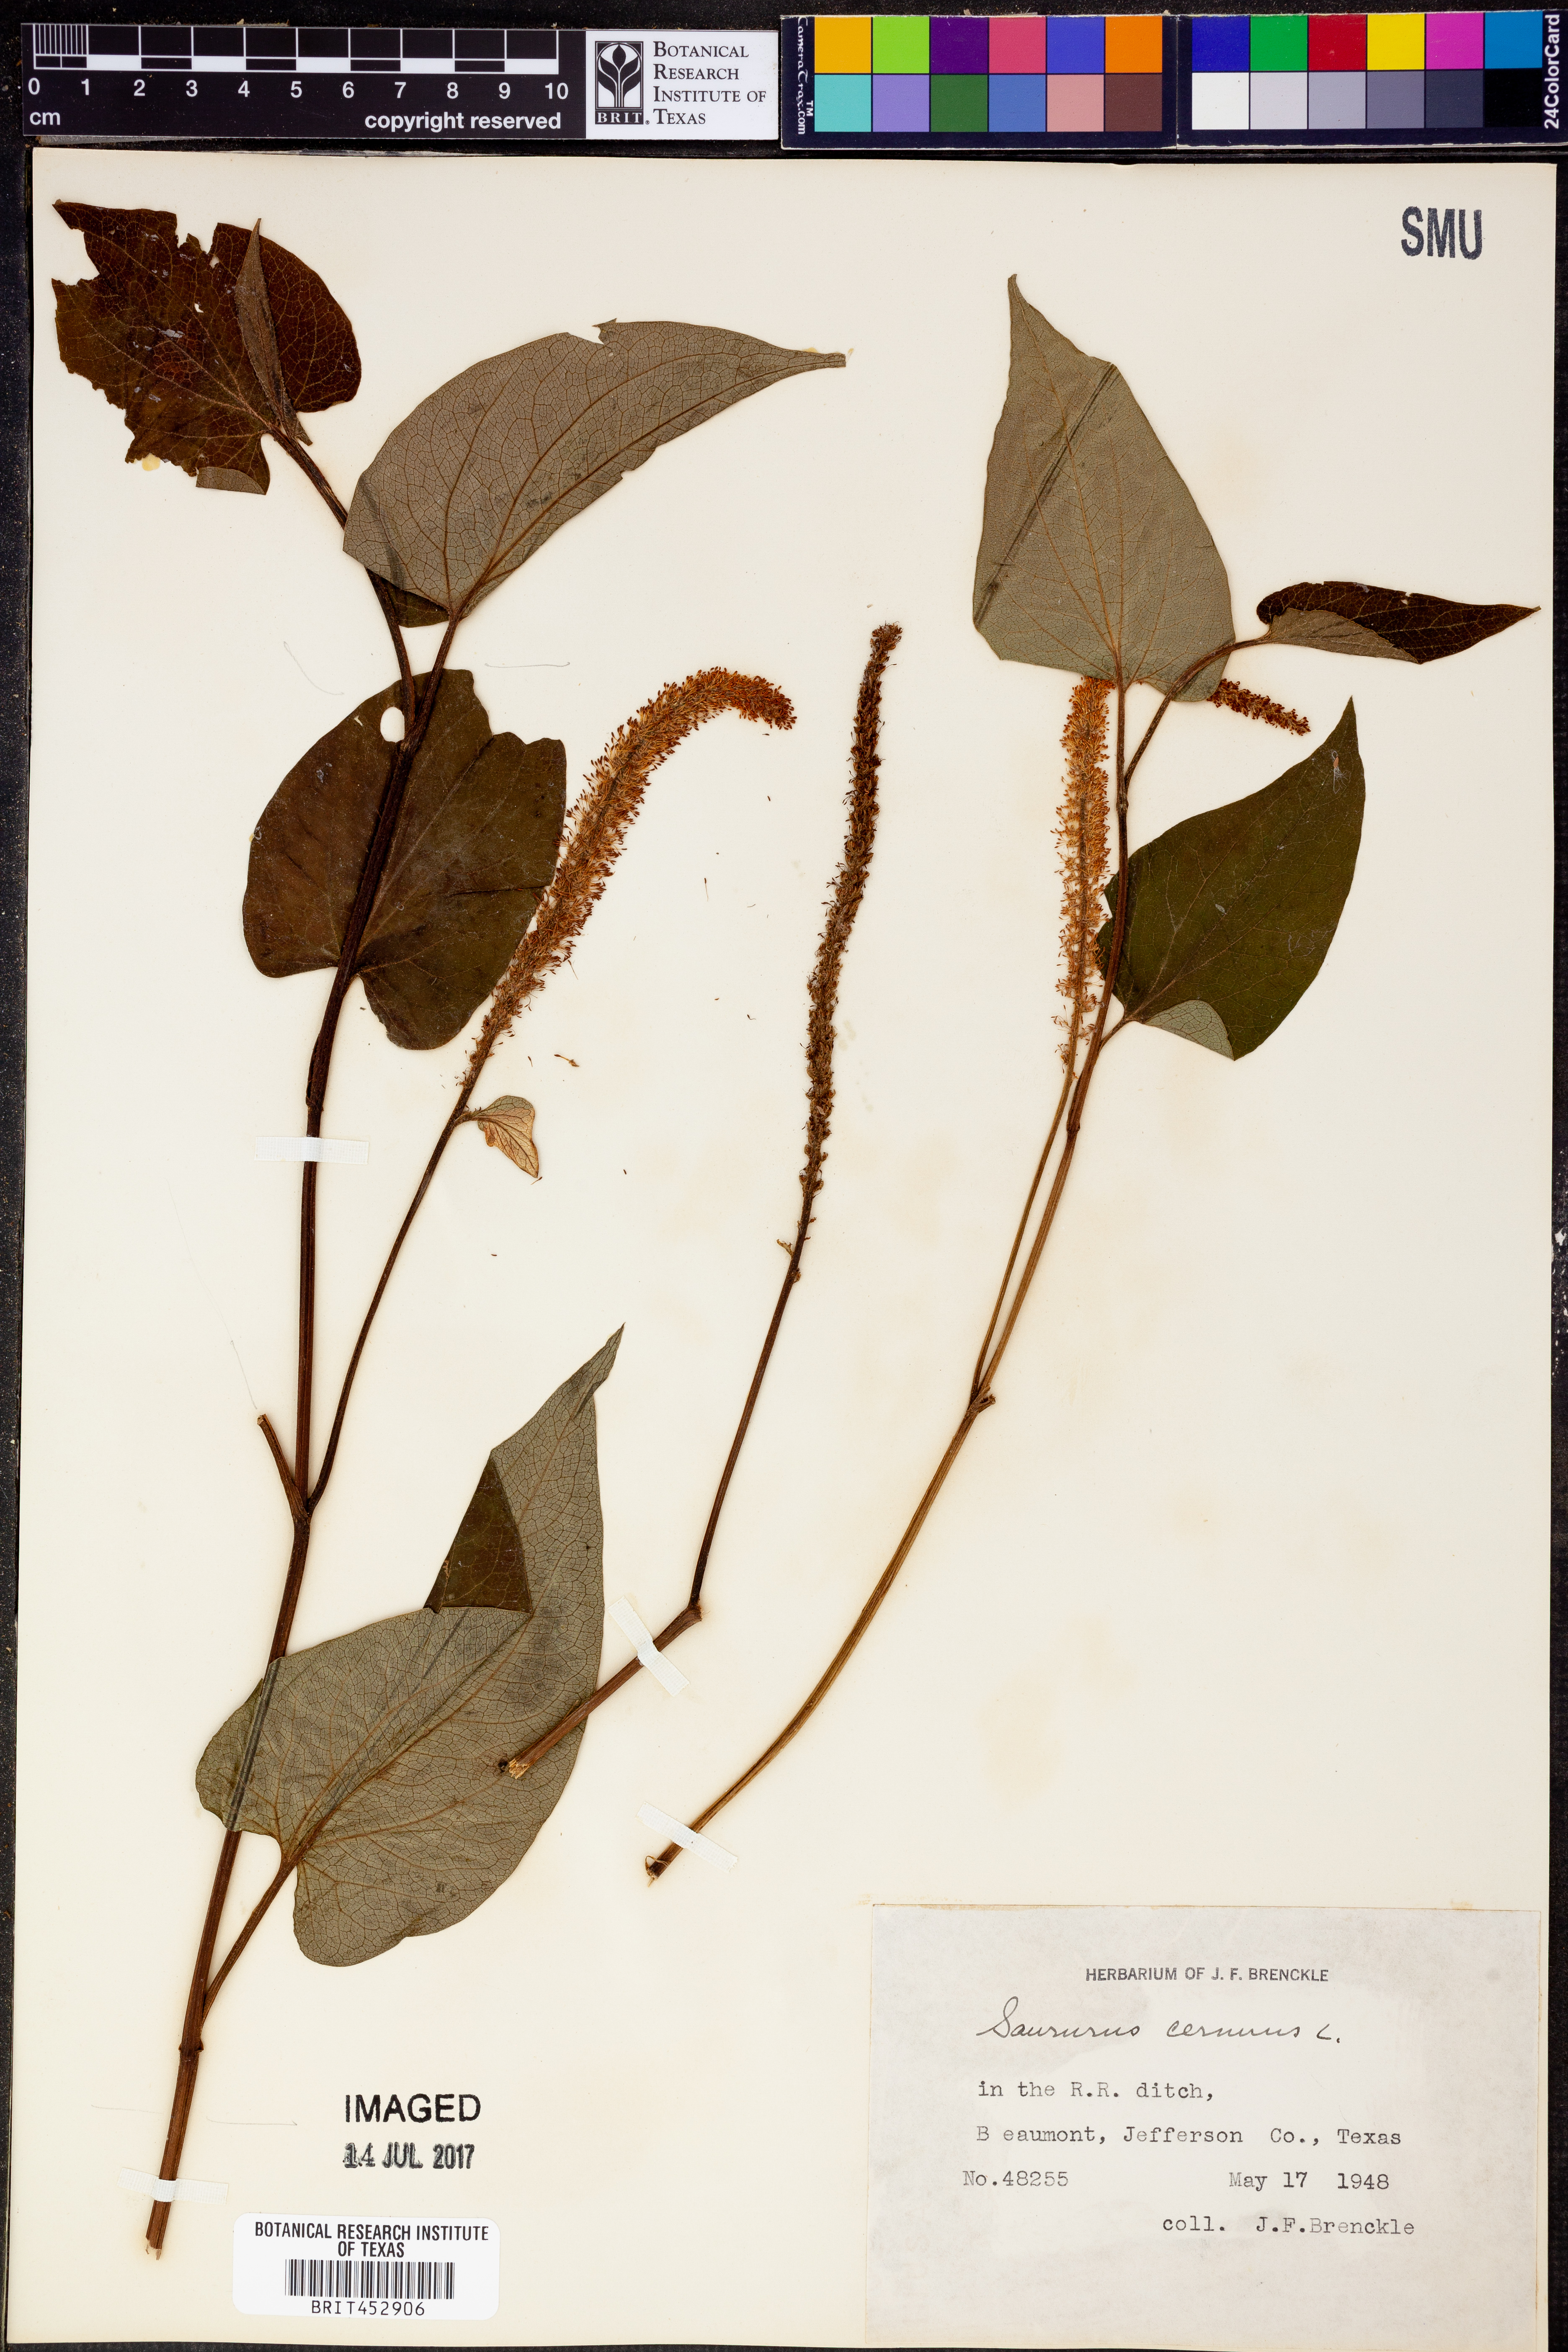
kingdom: Plantae
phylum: Tracheophyta
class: Magnoliopsida
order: Piperales
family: Saururaceae
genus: Saururus
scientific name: Saururus cernuus
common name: Lizard's-tail
